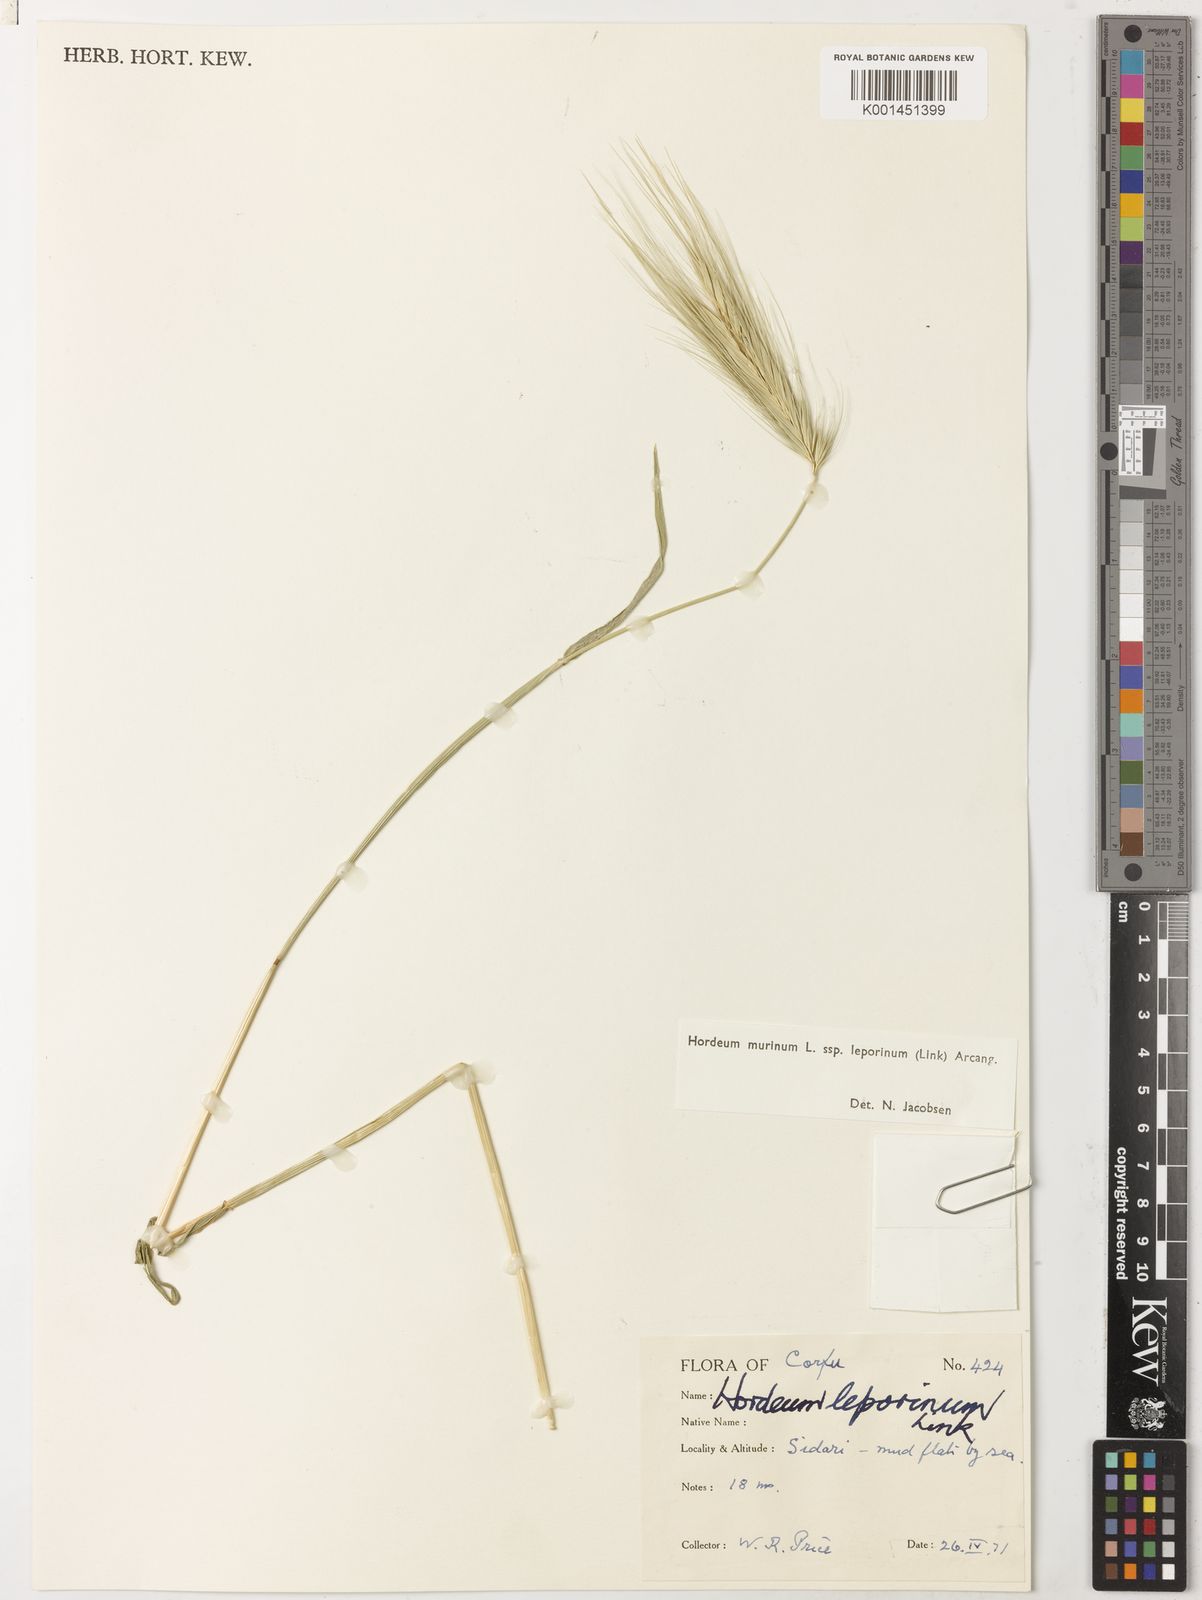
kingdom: Plantae
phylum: Tracheophyta
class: Liliopsida
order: Poales
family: Poaceae
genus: Hordeum
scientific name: Hordeum murinum
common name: Wall barley
